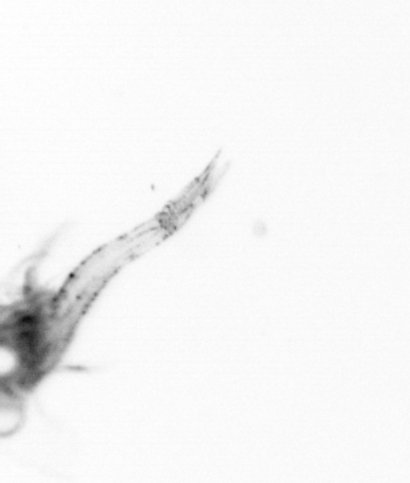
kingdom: Animalia
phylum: Arthropoda
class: Malacostraca
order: Decapoda
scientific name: Decapoda
